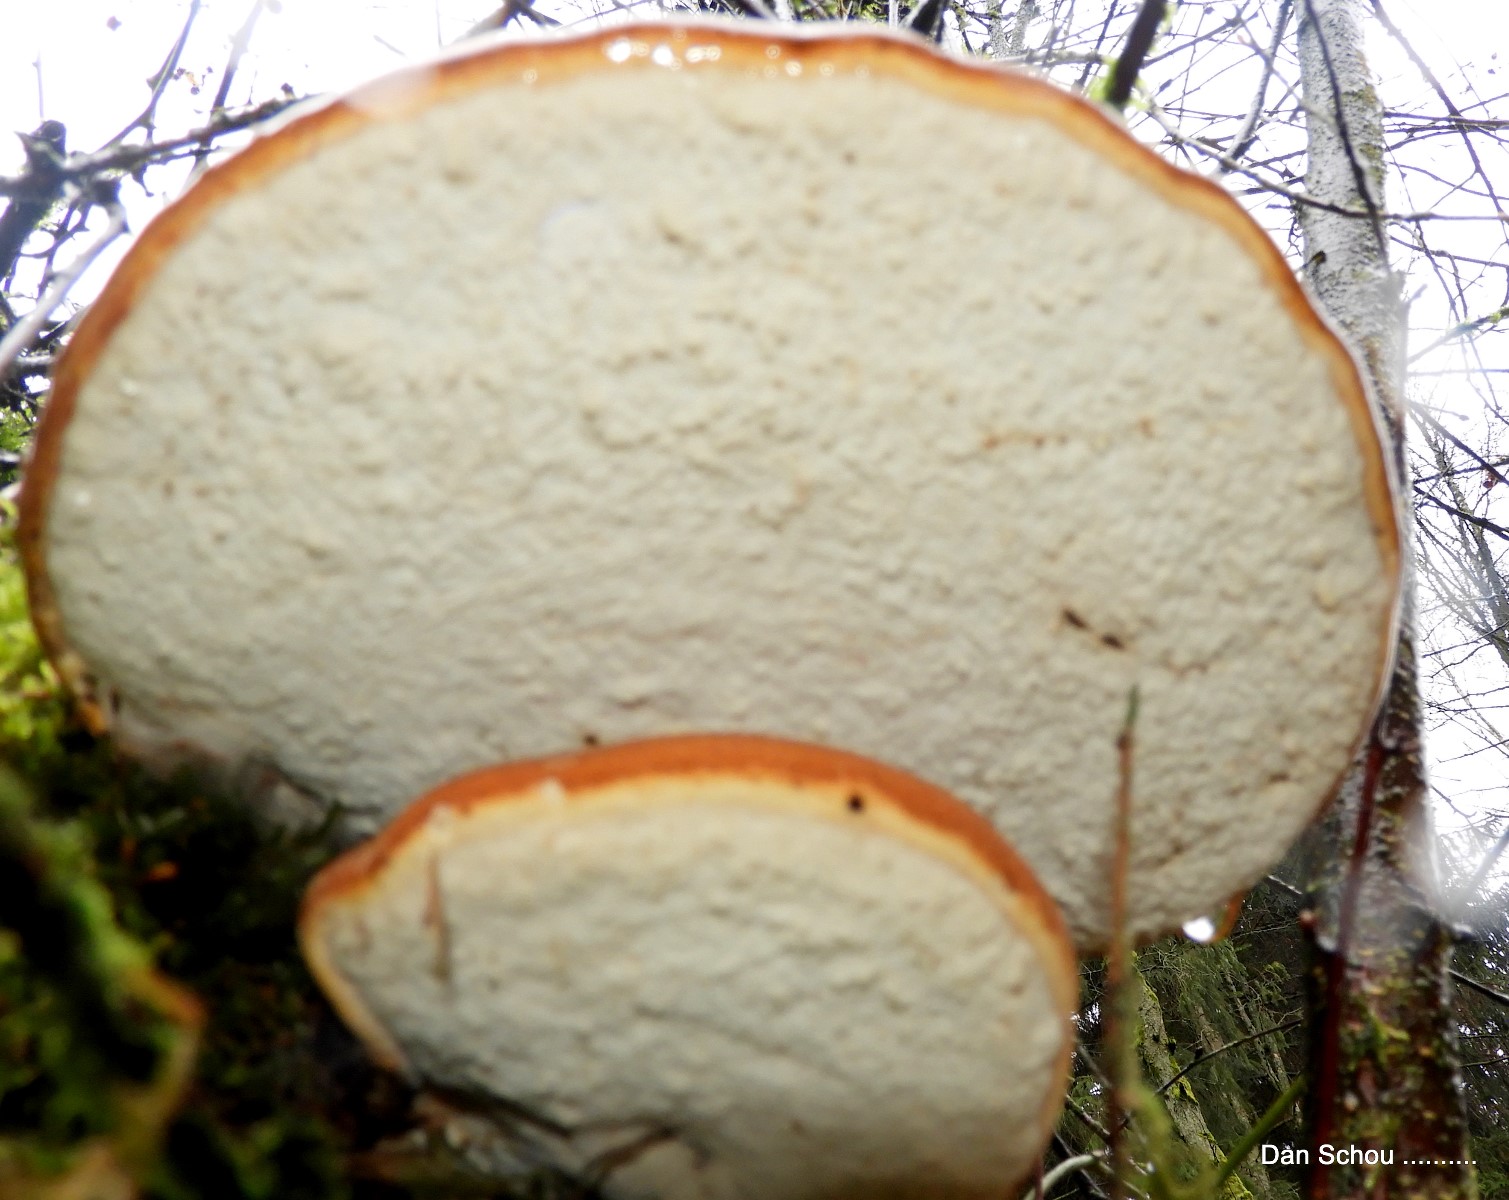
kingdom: Fungi
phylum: Basidiomycota
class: Agaricomycetes
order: Polyporales
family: Fomitopsidaceae
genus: Fomitopsis
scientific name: Fomitopsis betulina
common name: birkeporesvamp
